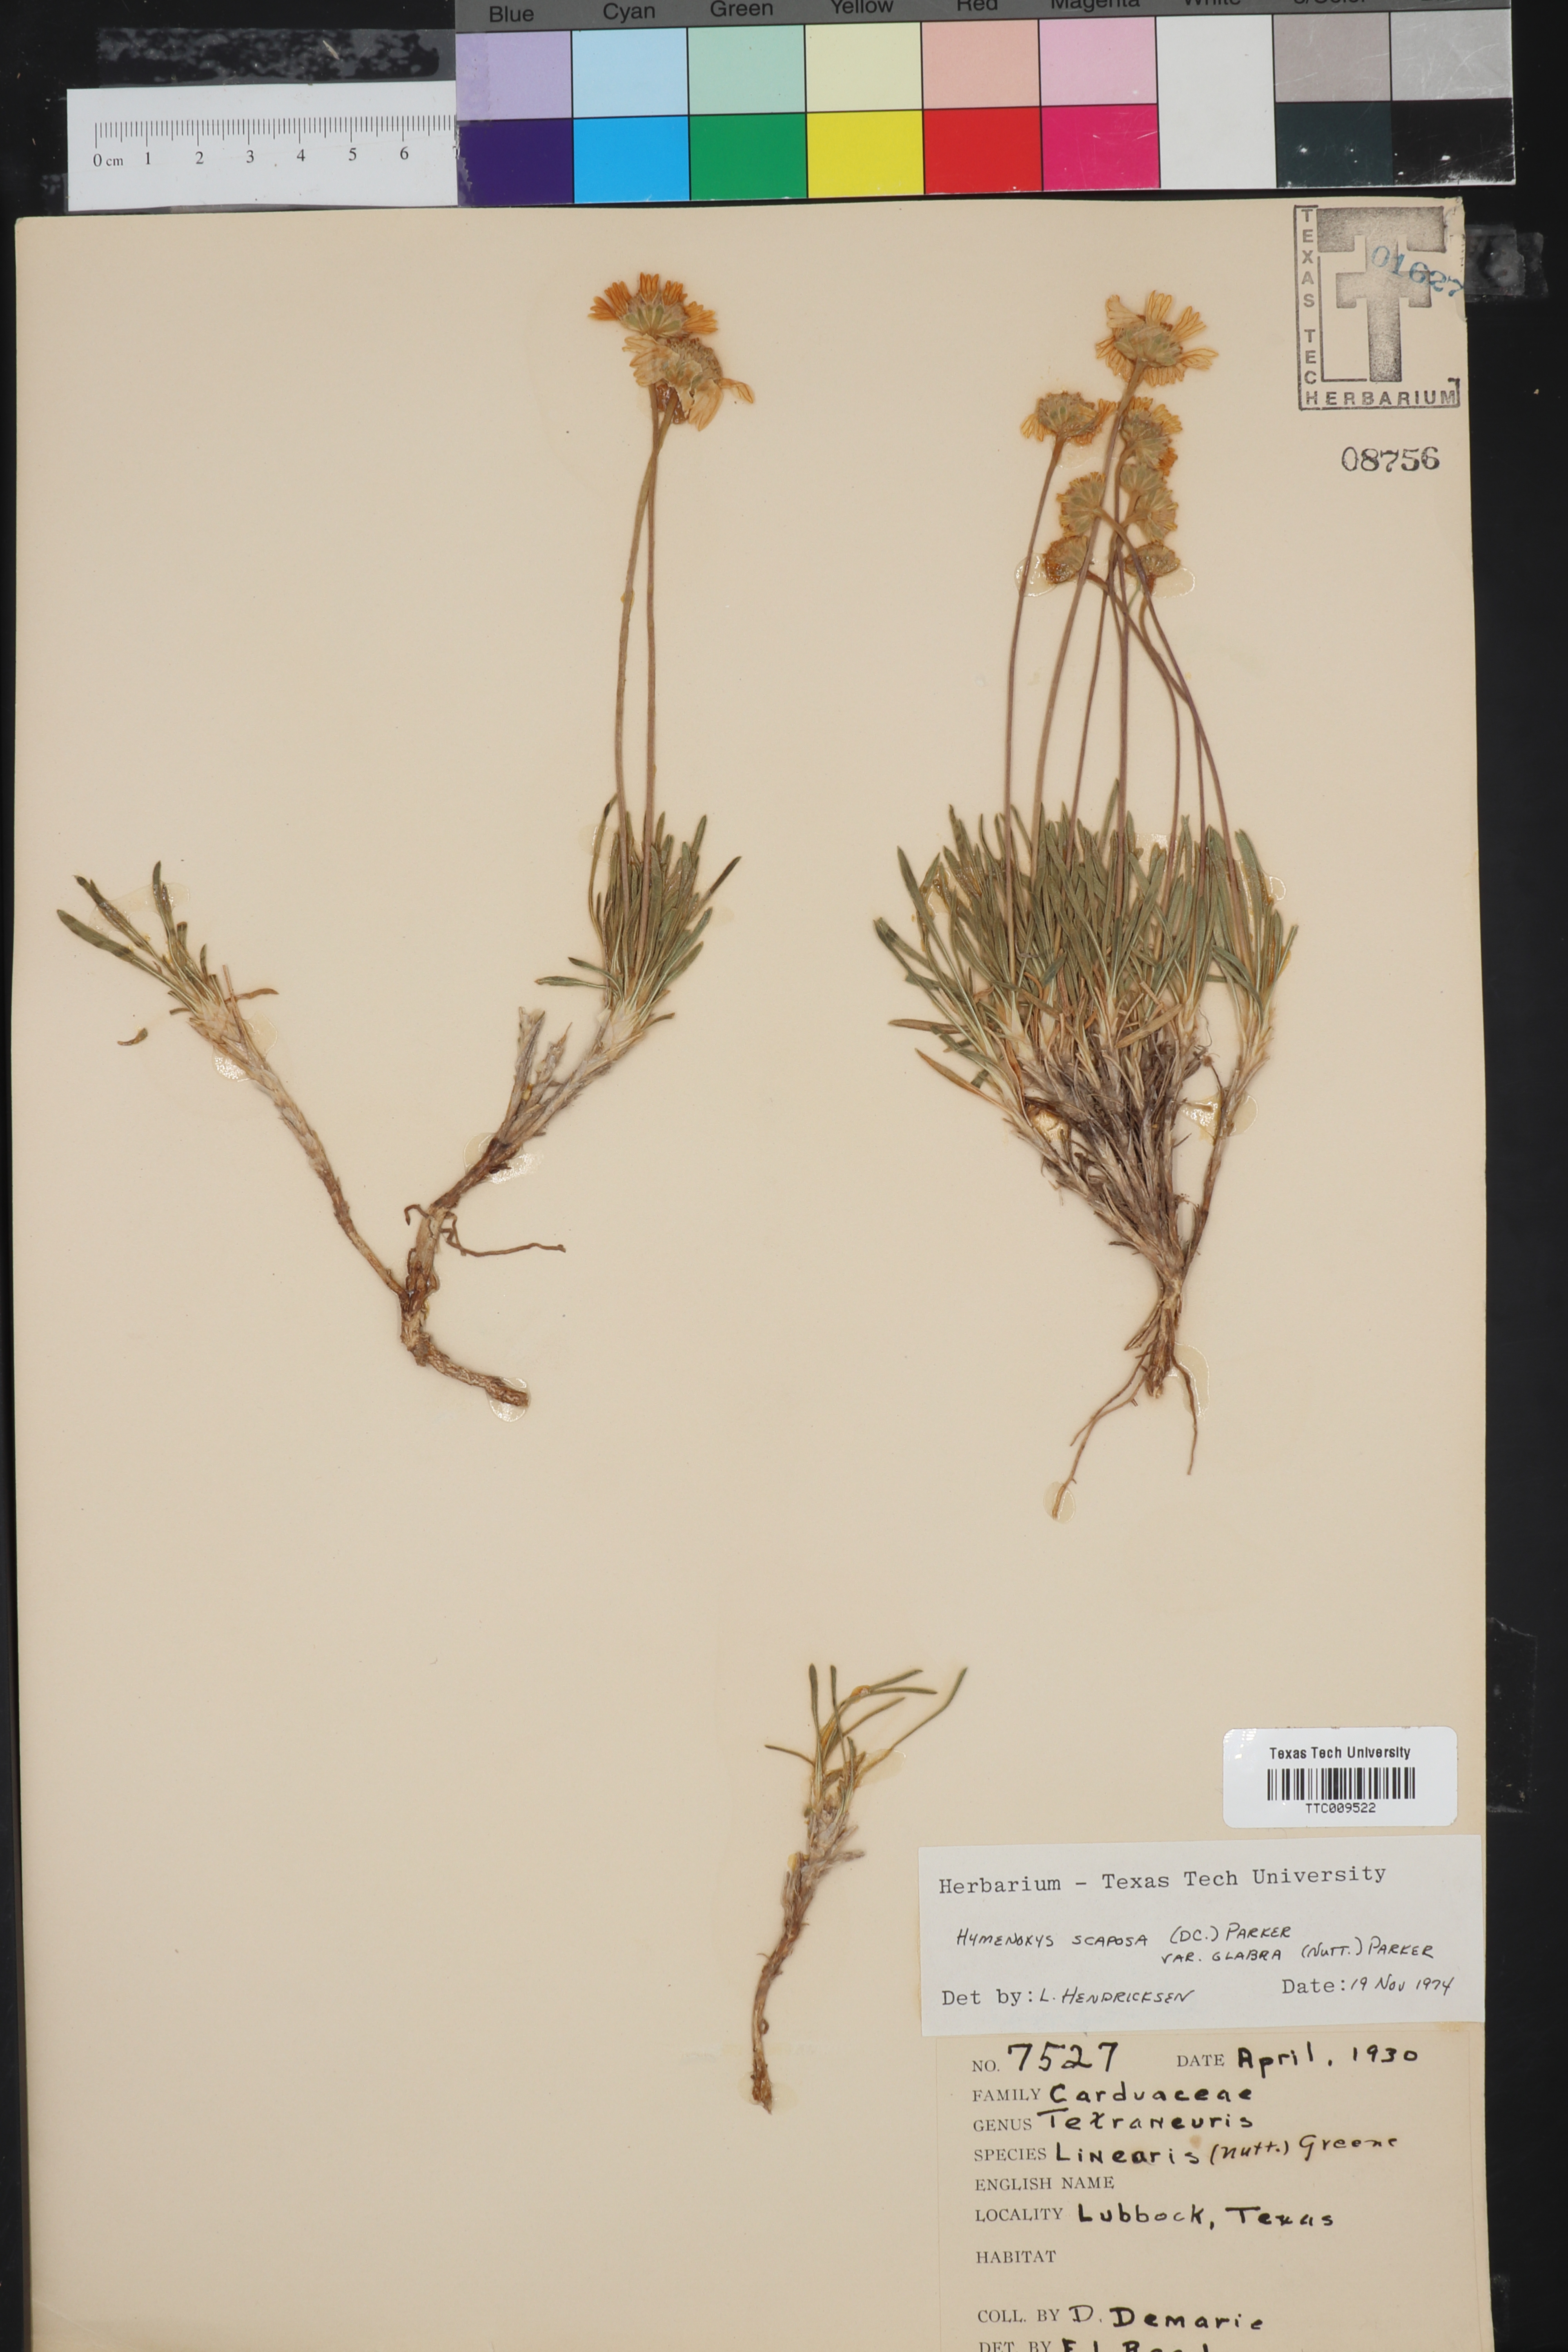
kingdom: Plantae
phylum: Tracheophyta
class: Magnoliopsida
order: Asterales
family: Asteraceae
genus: Tetraneuris
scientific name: Tetraneuris scaposa
